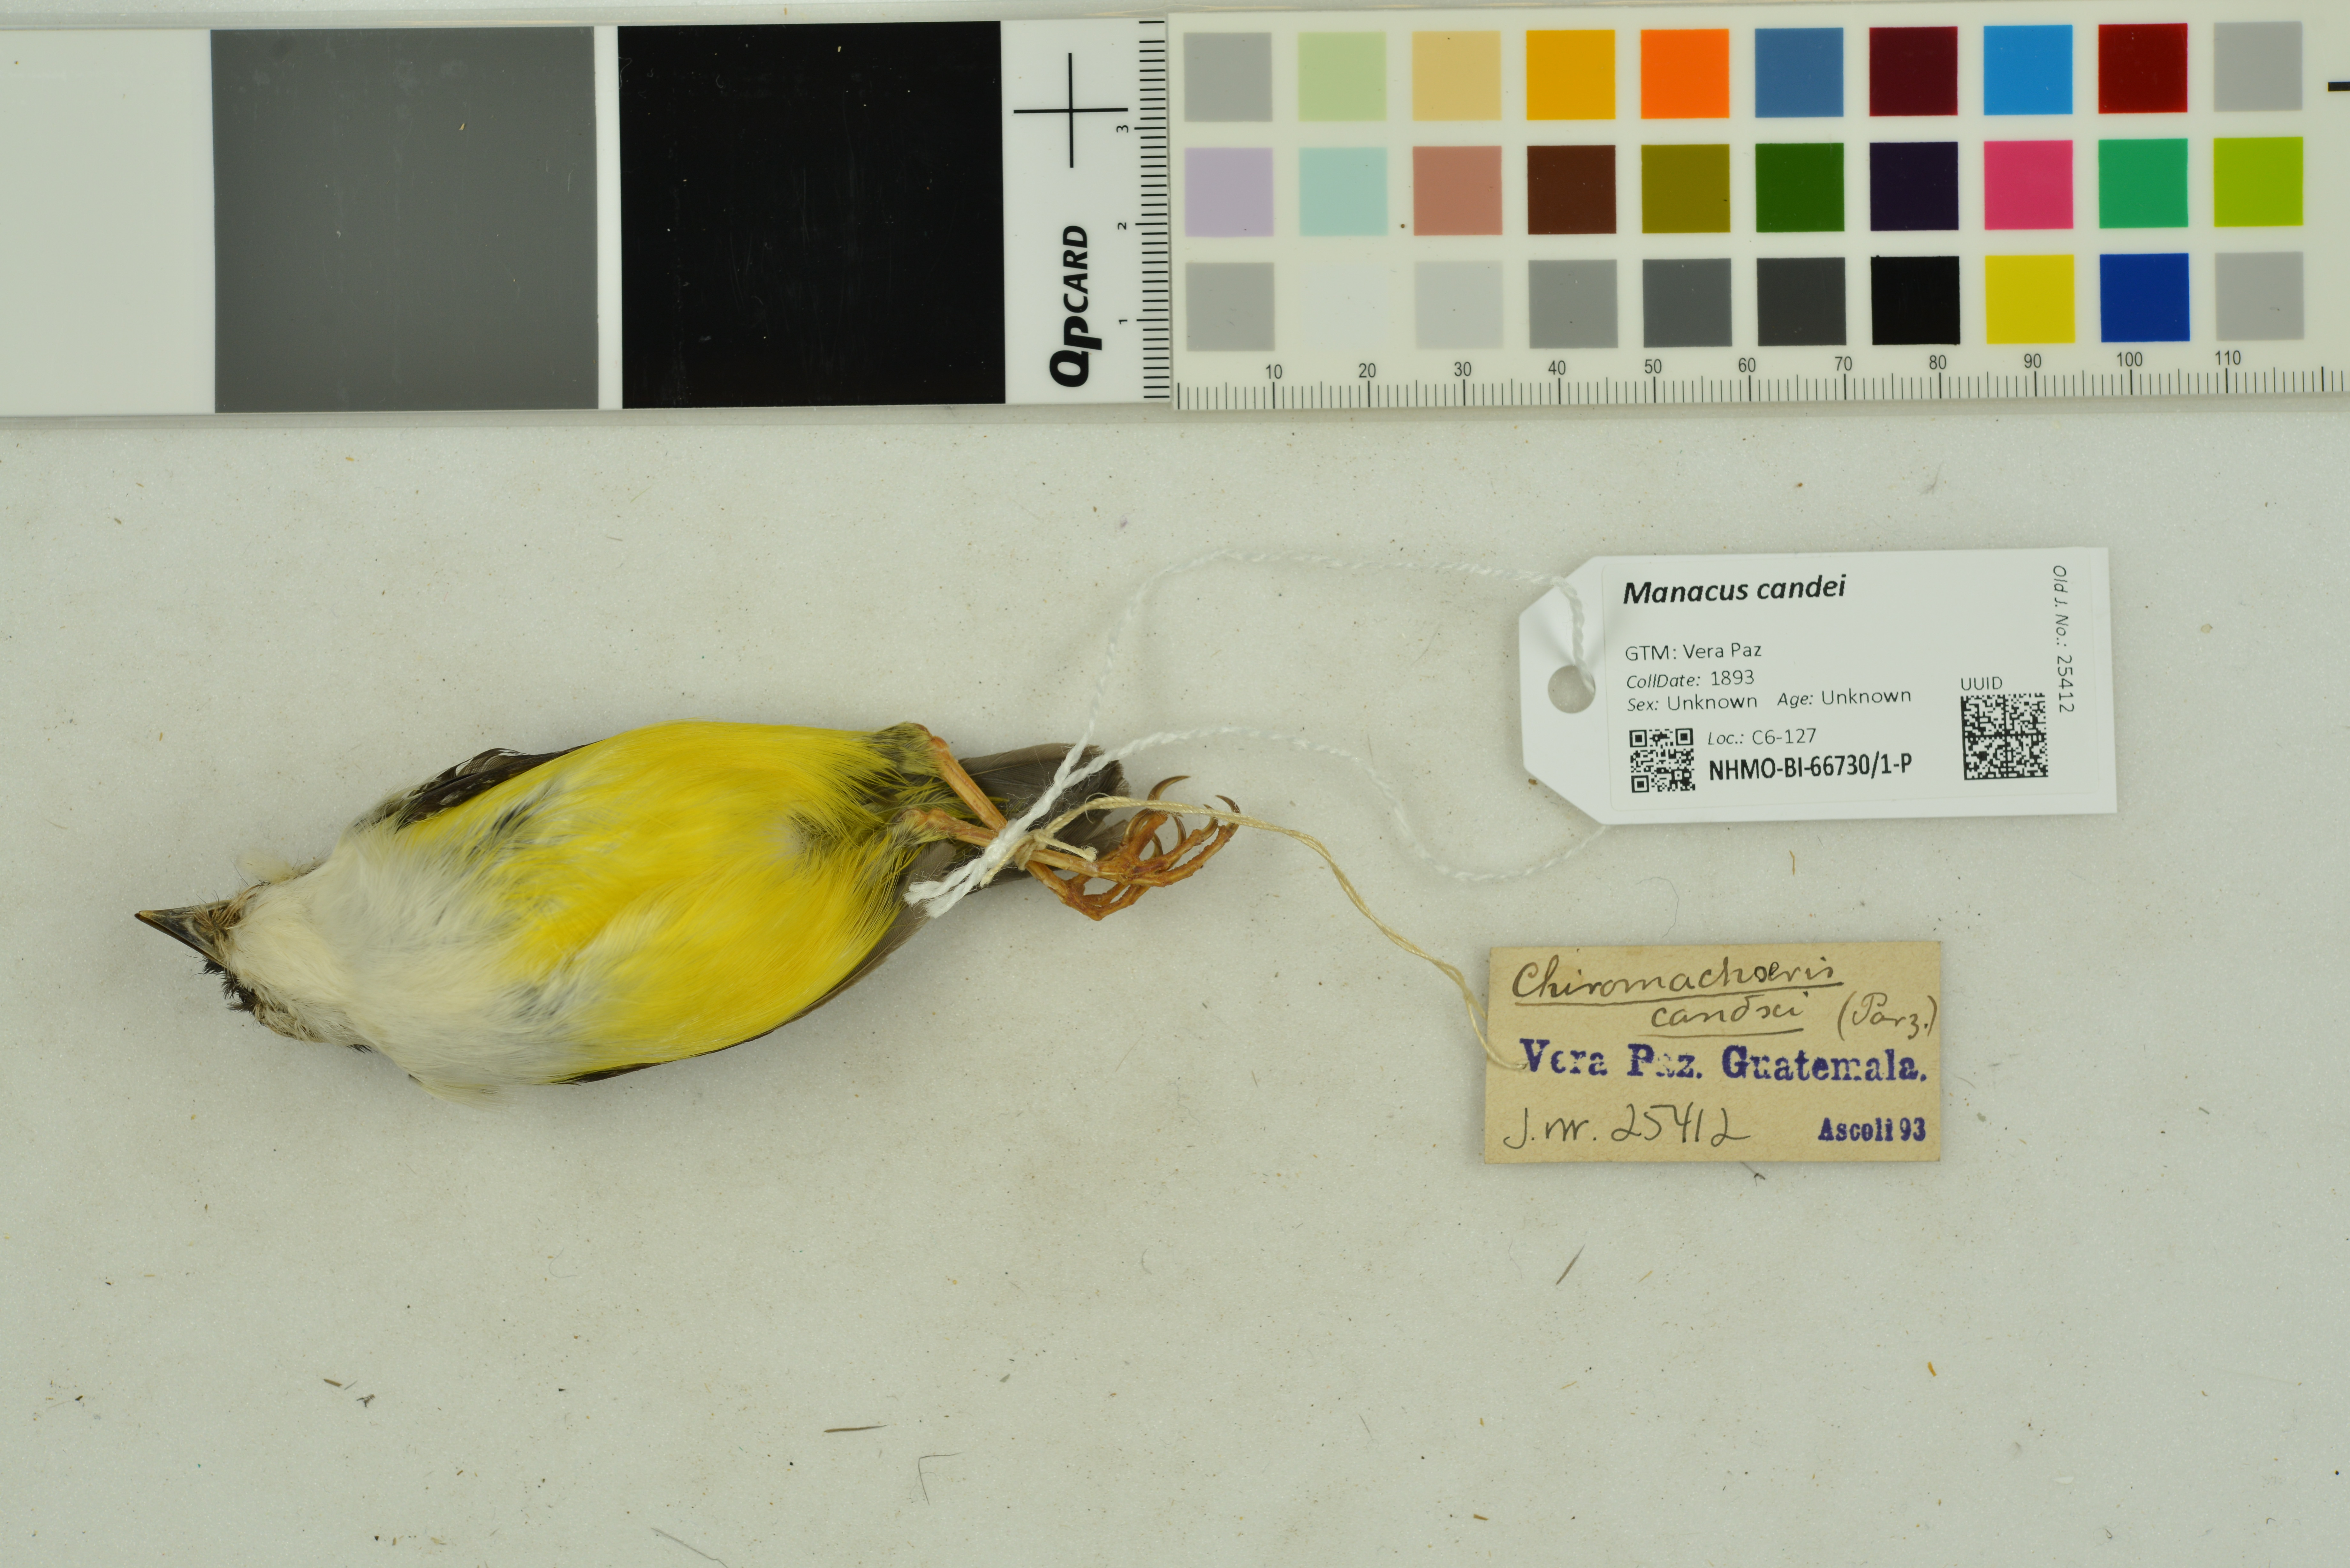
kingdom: Animalia
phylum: Chordata
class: Aves
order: Passeriformes
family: Pipridae
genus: Manacus
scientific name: Manacus candei
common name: White-collared manakin
